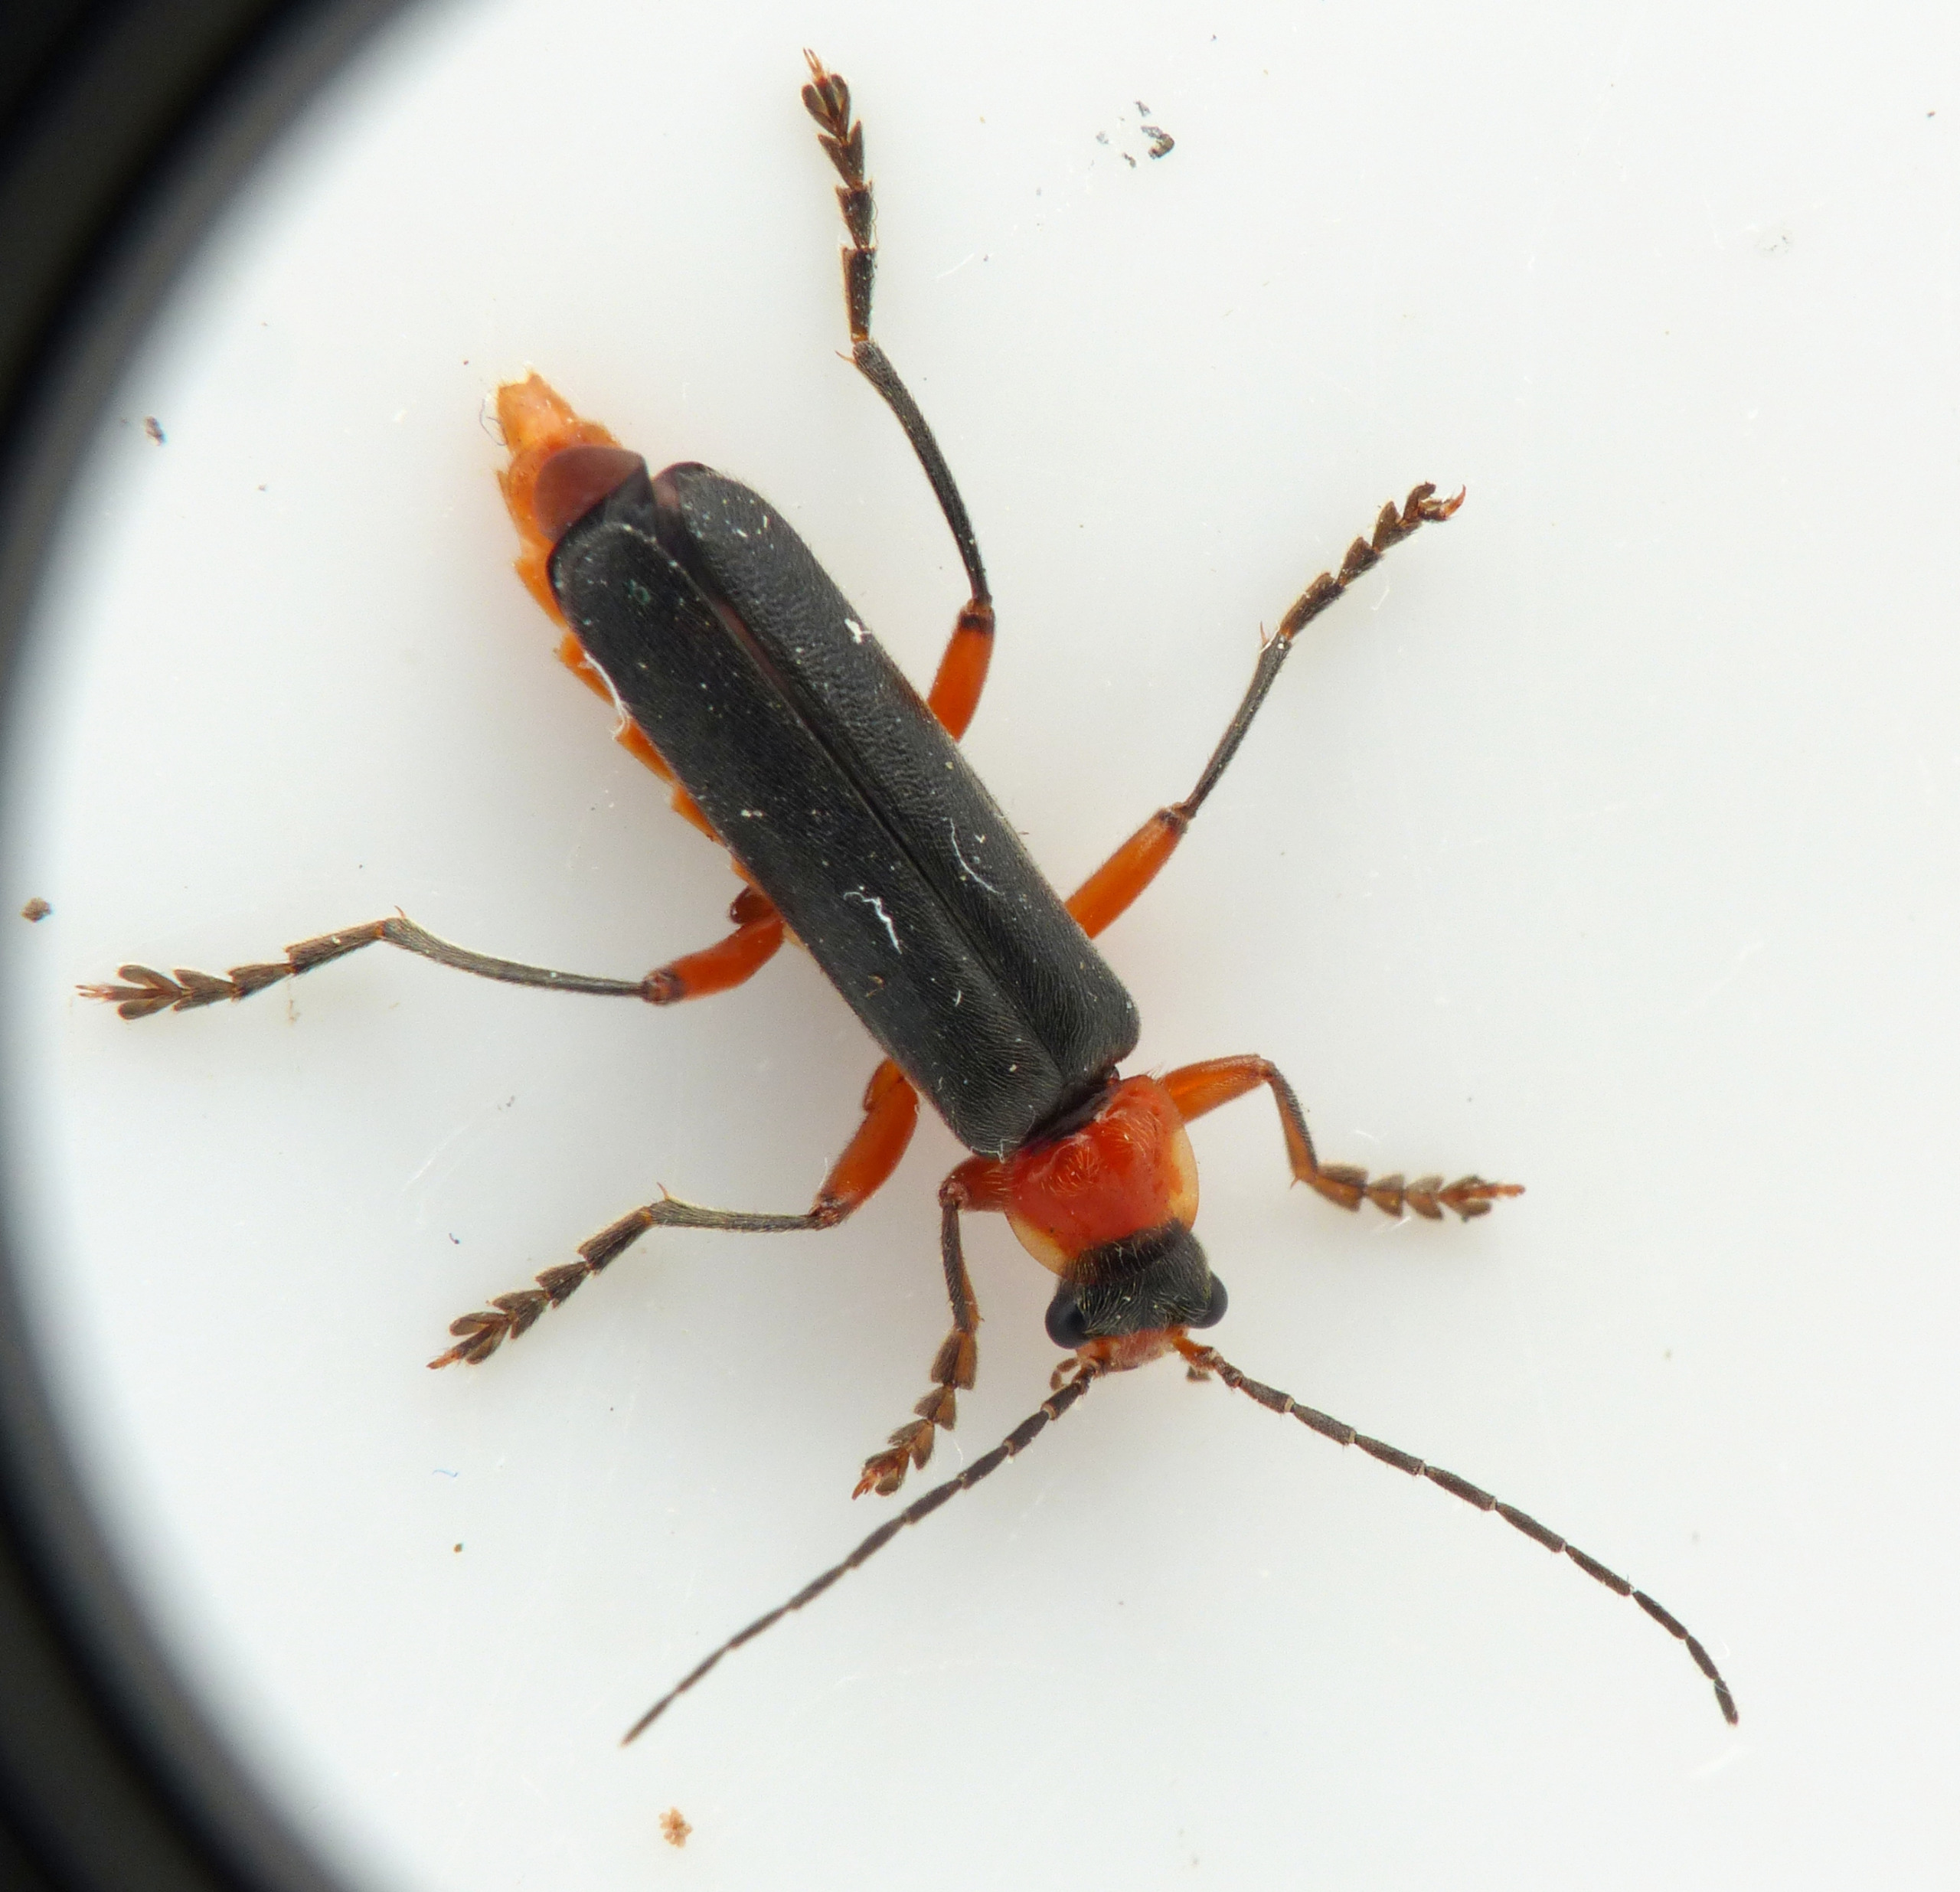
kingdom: Animalia
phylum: Arthropoda
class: Insecta
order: Coleoptera
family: Cantharidae
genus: Cantharis
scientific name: Cantharis pellucida
